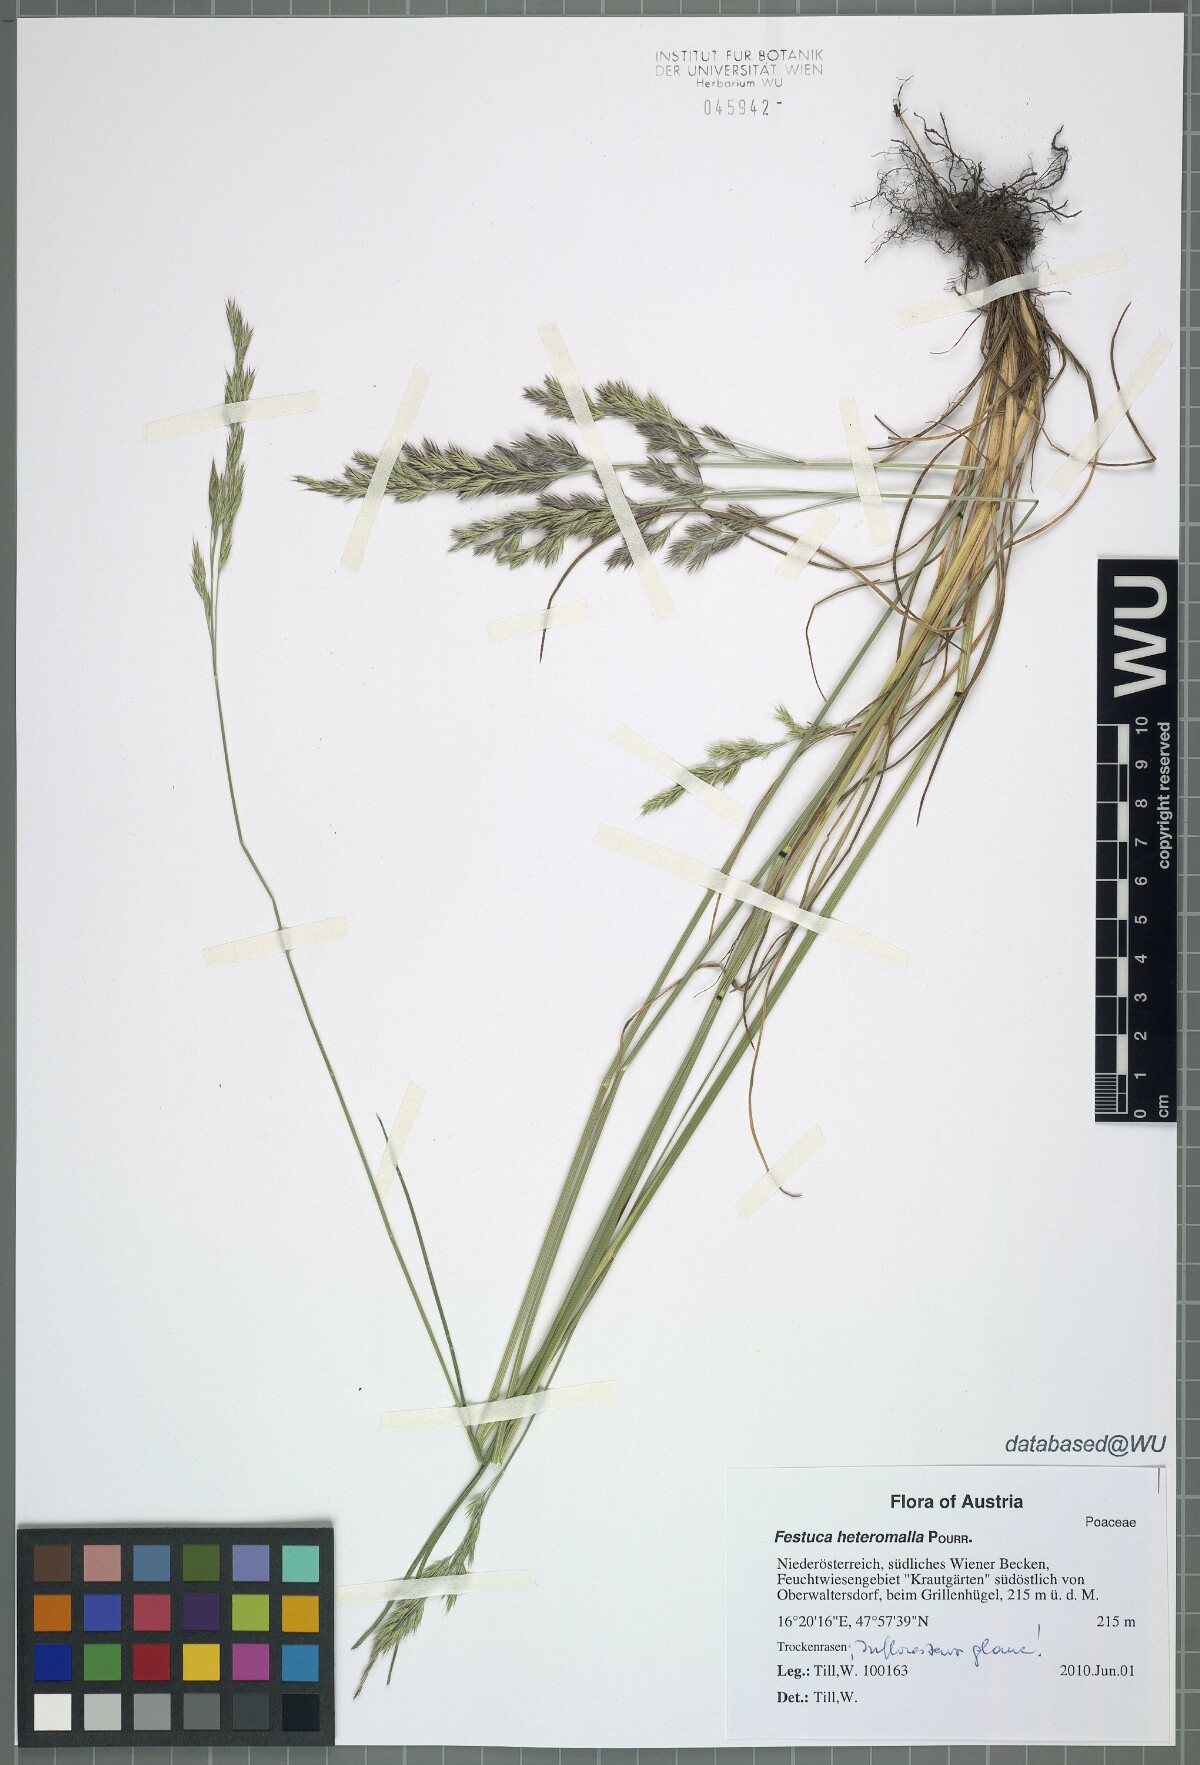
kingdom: Plantae
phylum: Tracheophyta
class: Liliopsida
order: Poales
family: Poaceae
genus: Festuca
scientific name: Festuca heteromalla
